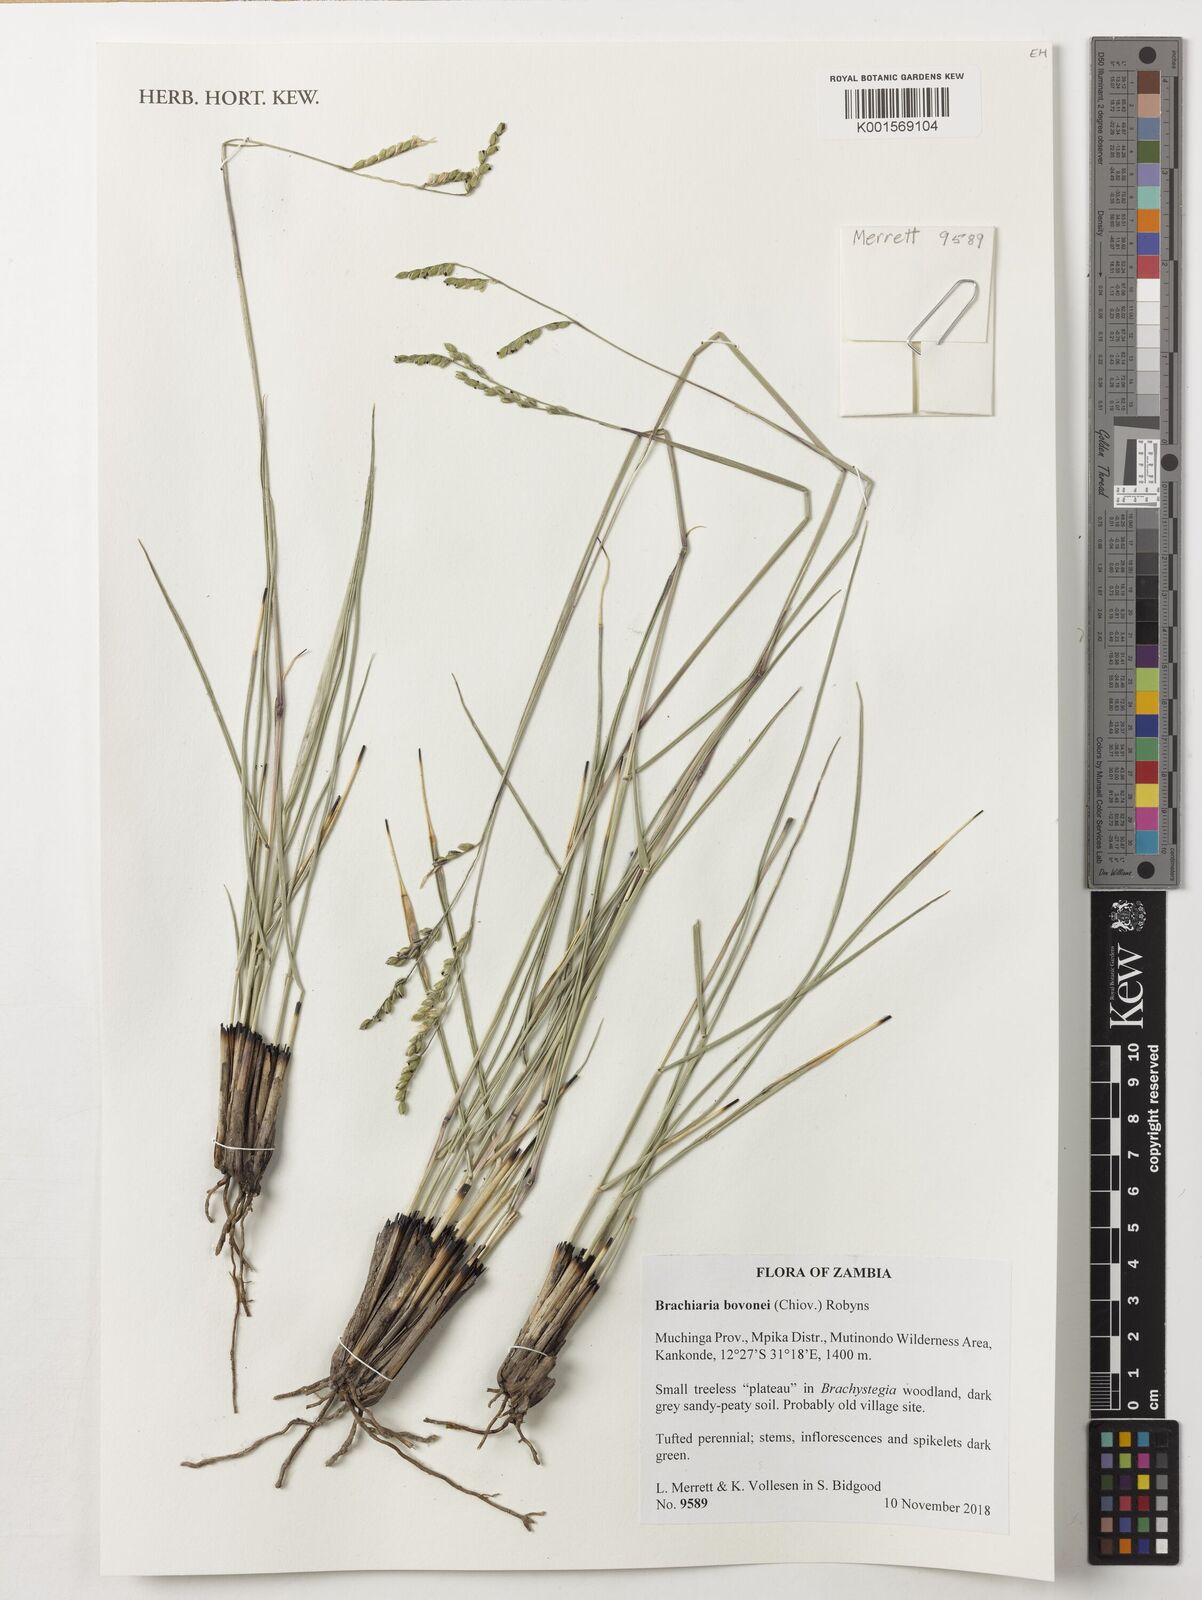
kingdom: Plantae
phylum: Tracheophyta
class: Liliopsida
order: Poales
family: Poaceae
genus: Urochloa
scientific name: Urochloa bovonei
